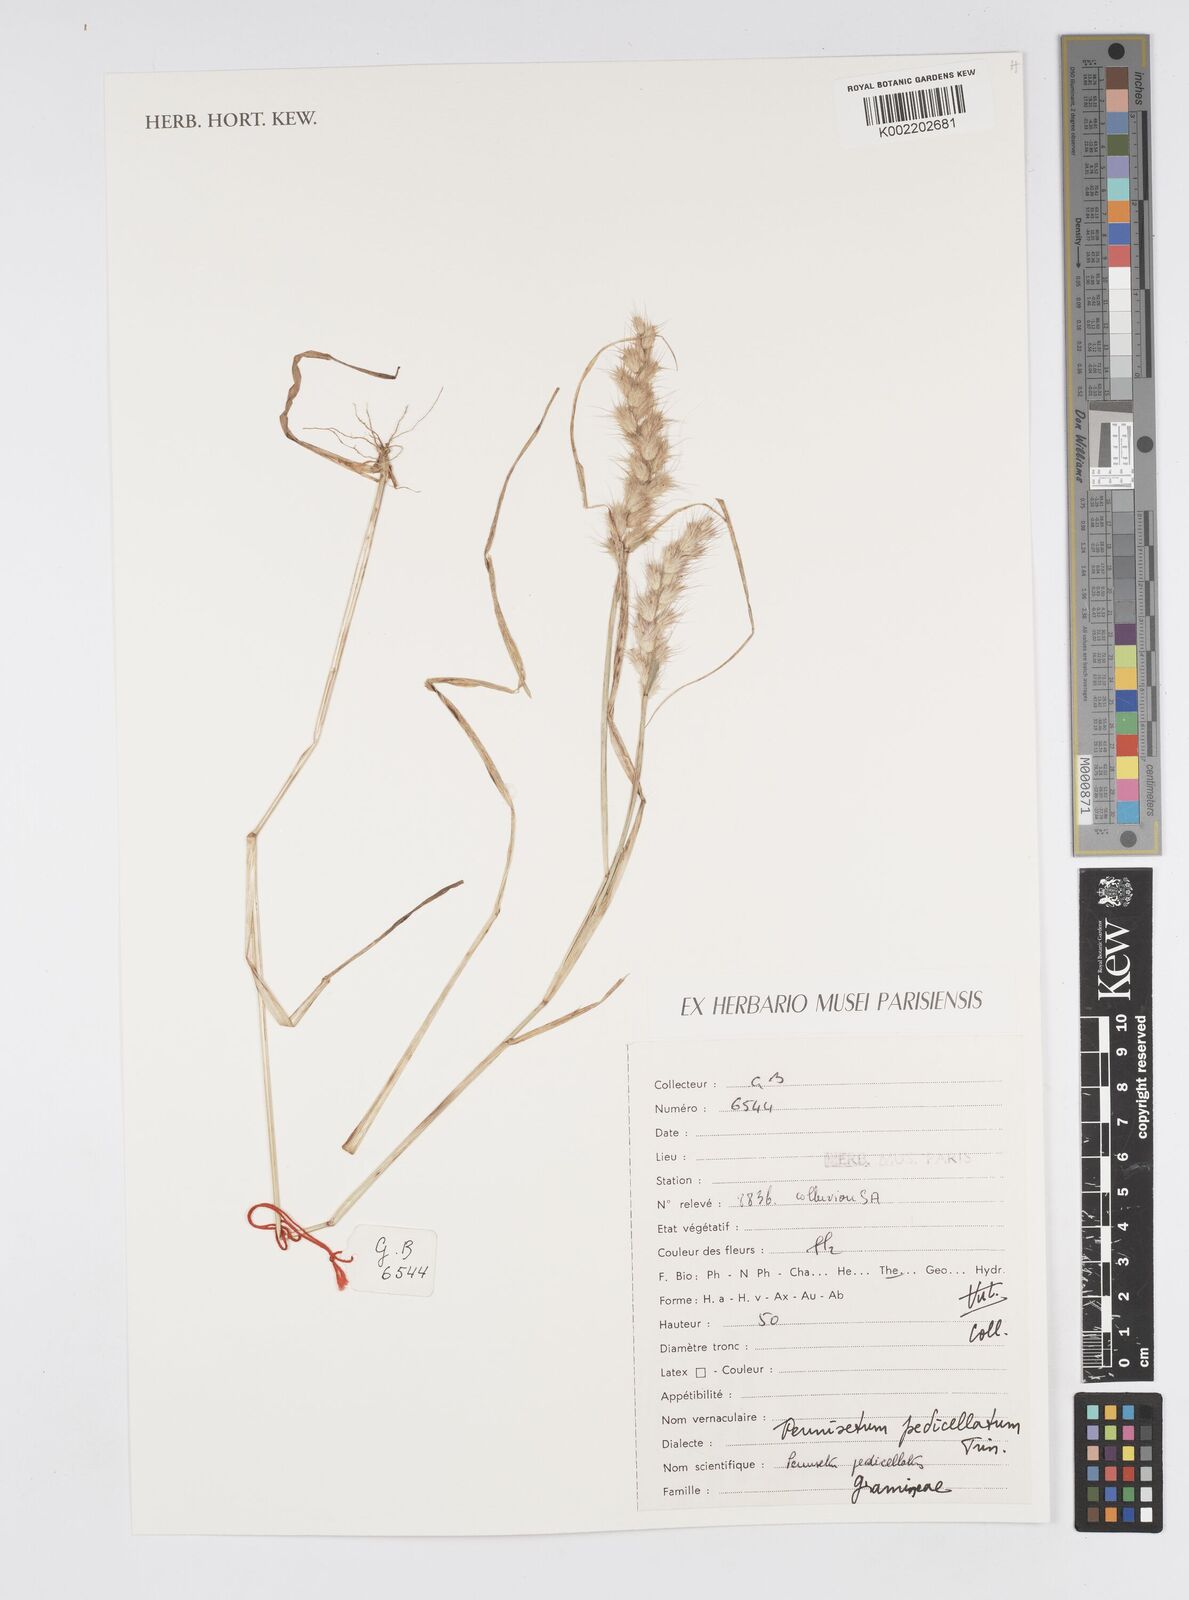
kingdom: Plantae
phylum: Tracheophyta
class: Liliopsida
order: Poales
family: Poaceae
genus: Cenchrus
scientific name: Cenchrus pedicellatus
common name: Hairy fountain grass
